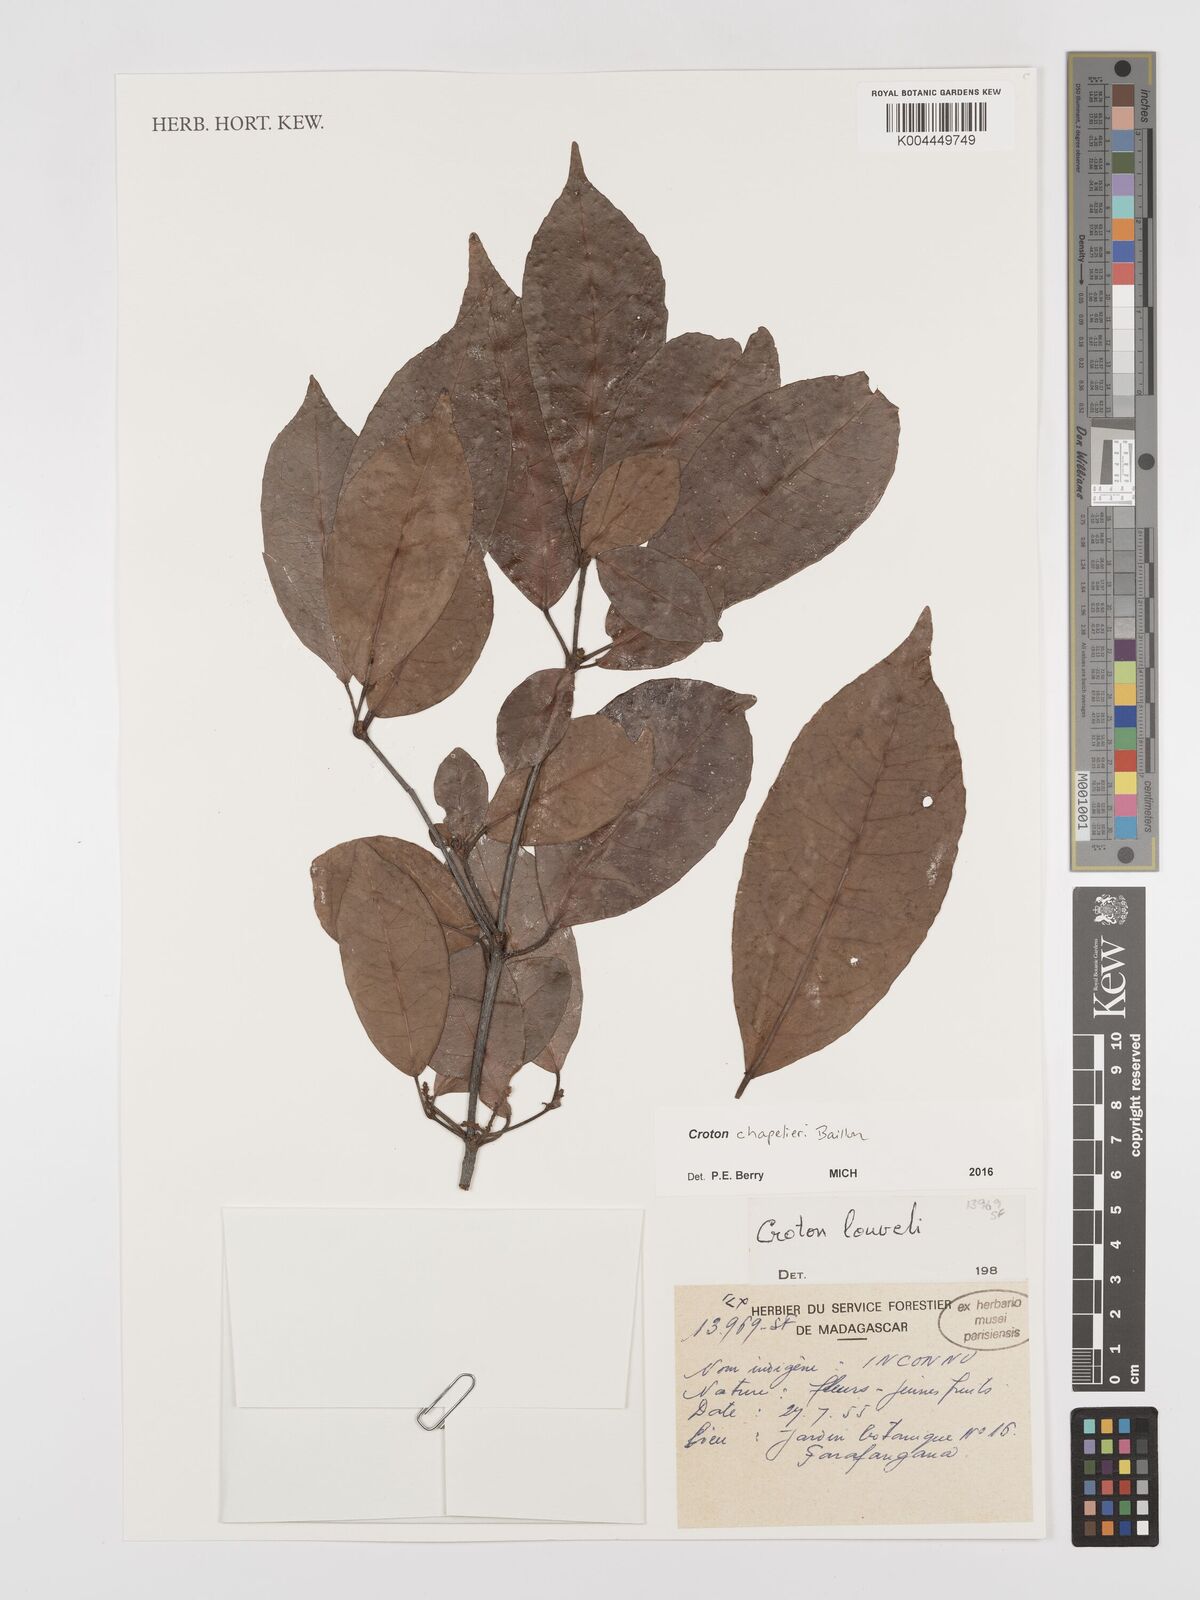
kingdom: Plantae
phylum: Tracheophyta
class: Magnoliopsida
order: Malpighiales
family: Euphorbiaceae
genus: Croton
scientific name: Croton chapelieri
